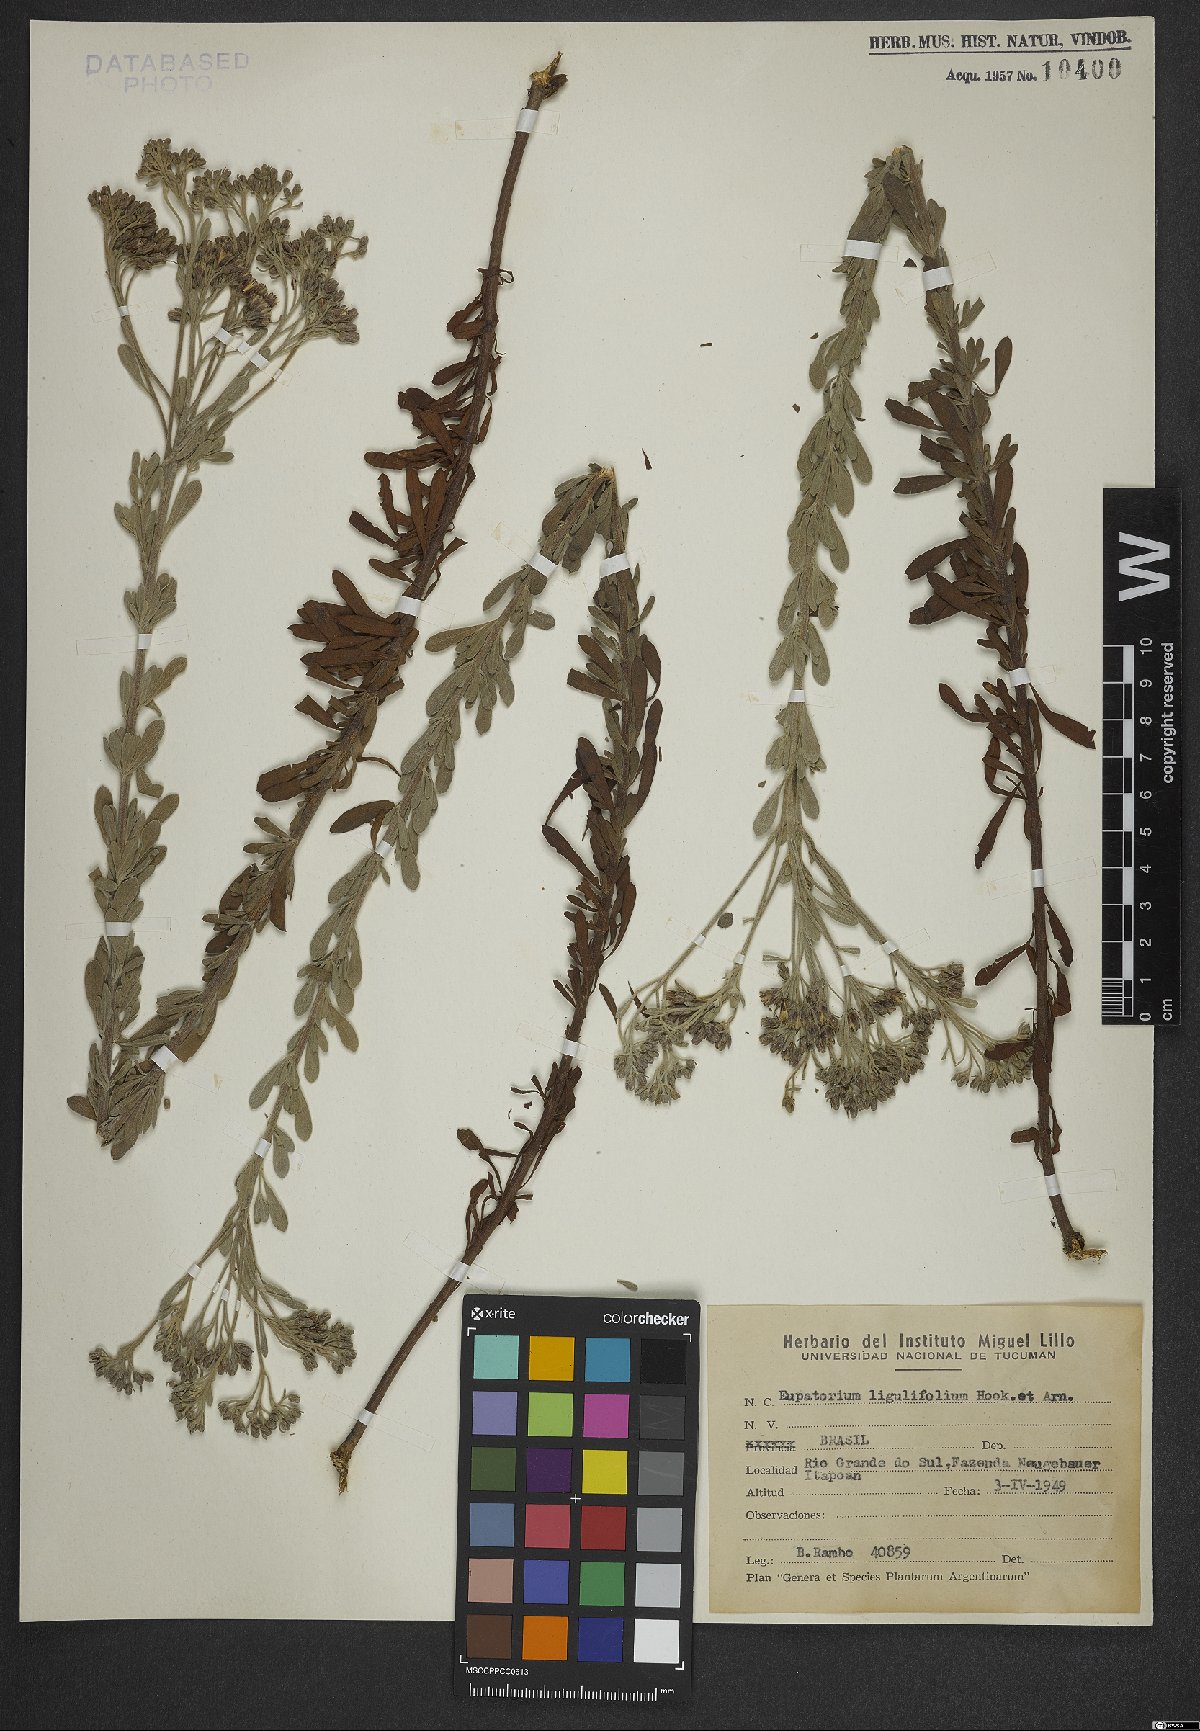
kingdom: Plantae
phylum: Tracheophyta
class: Magnoliopsida
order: Asterales
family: Asteraceae
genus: Disynaphia
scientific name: Disynaphia ligulifolia
